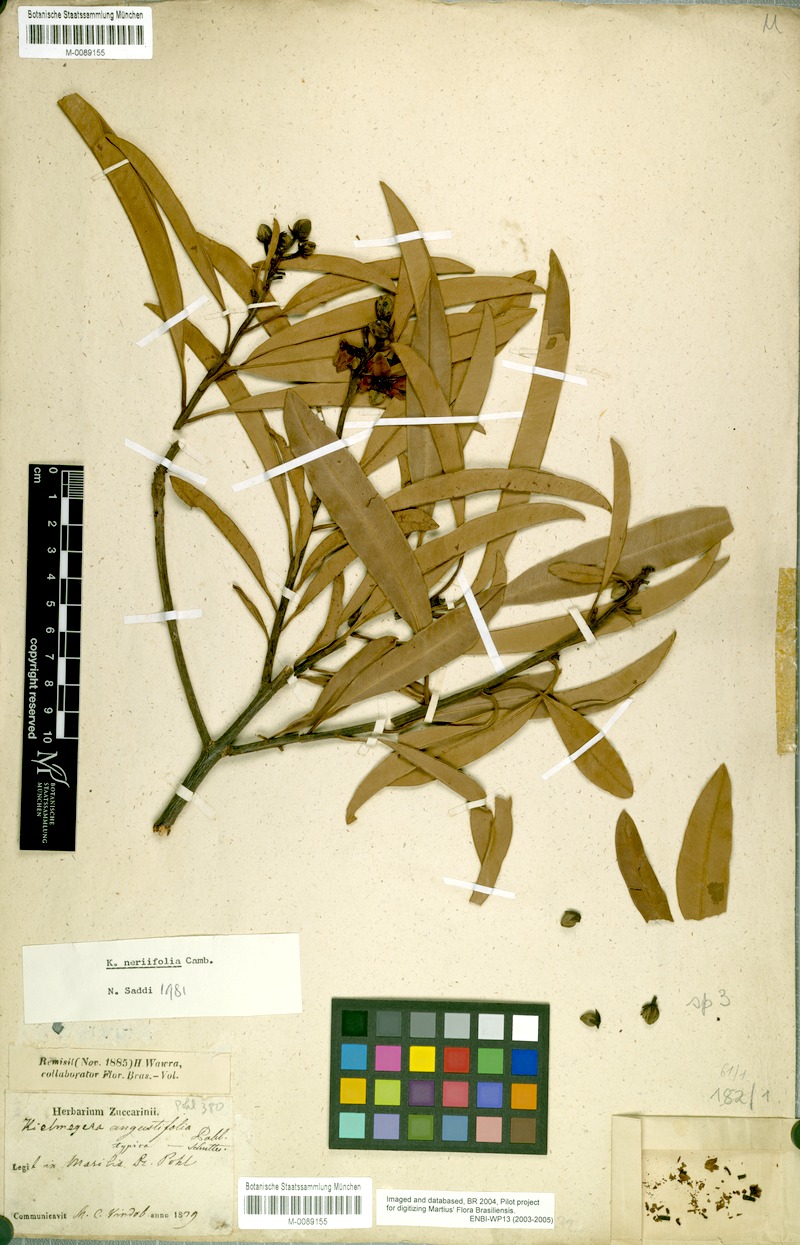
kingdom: Plantae
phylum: Tracheophyta
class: Magnoliopsida
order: Malpighiales
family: Calophyllaceae
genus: Kielmeyera
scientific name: Kielmeyera neriifolia
